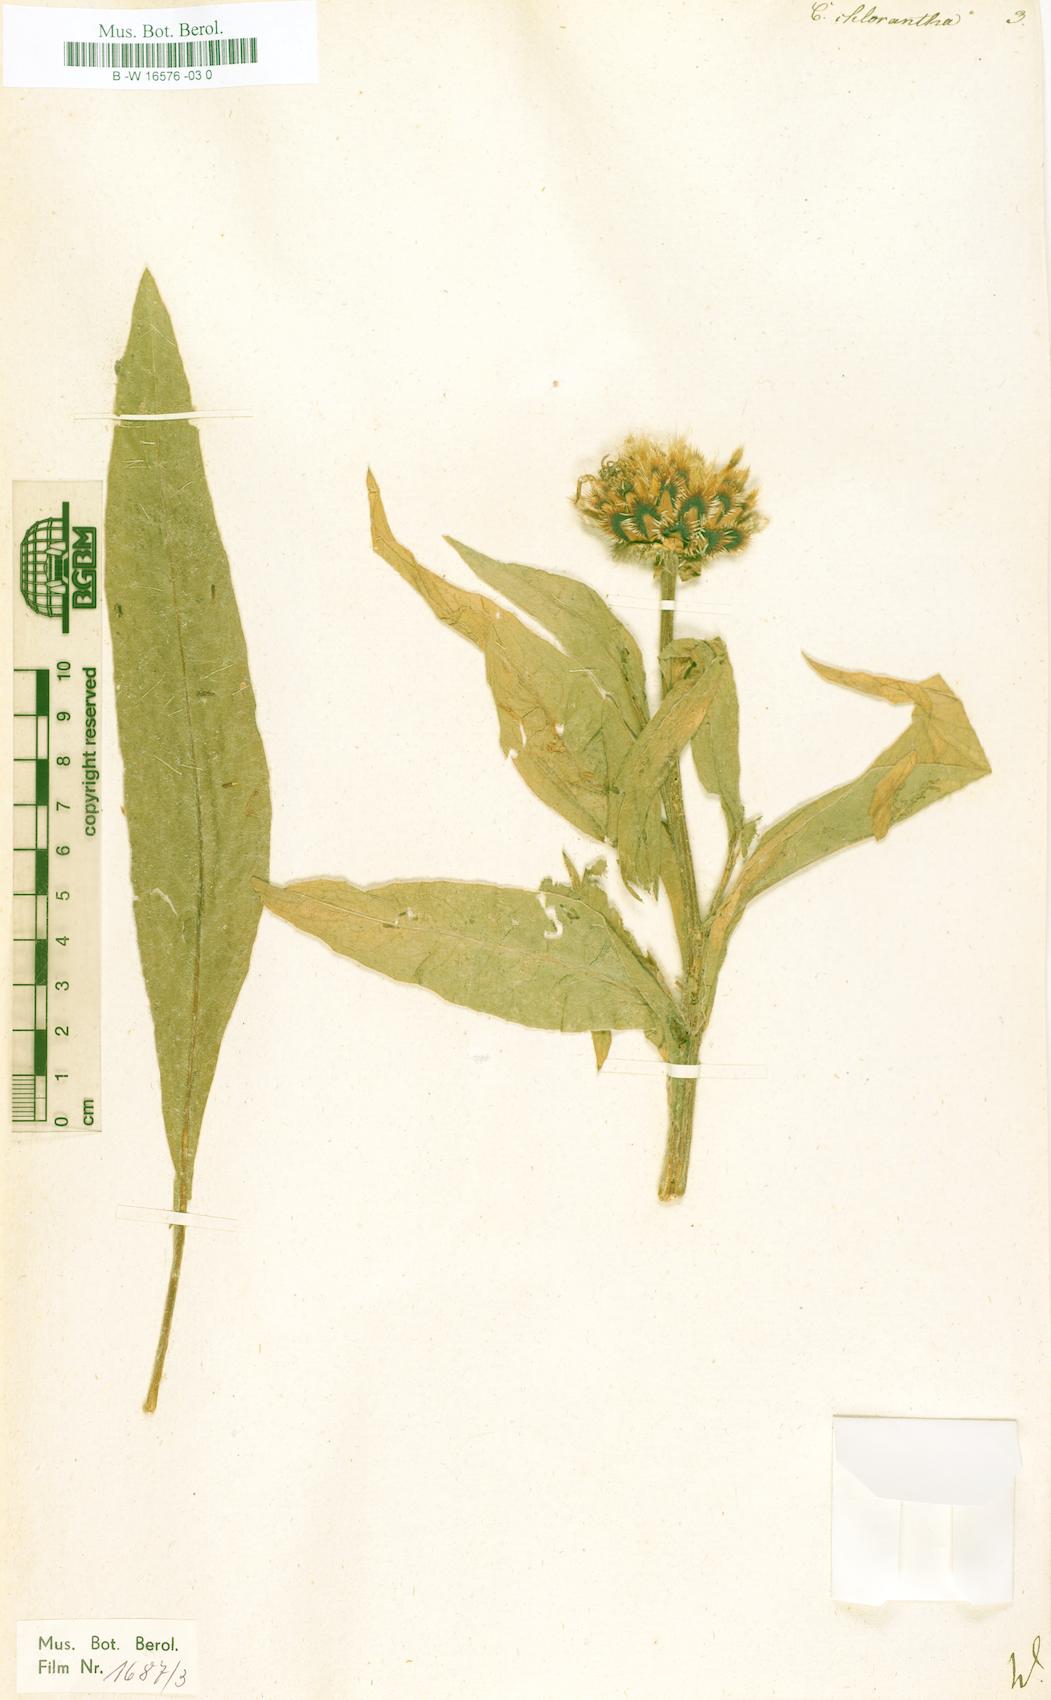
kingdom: Plantae
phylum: Tracheophyta
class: Magnoliopsida
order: Asterales
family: Asteraceae
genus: Centaurea
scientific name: Centaurea cheiranthifolia
